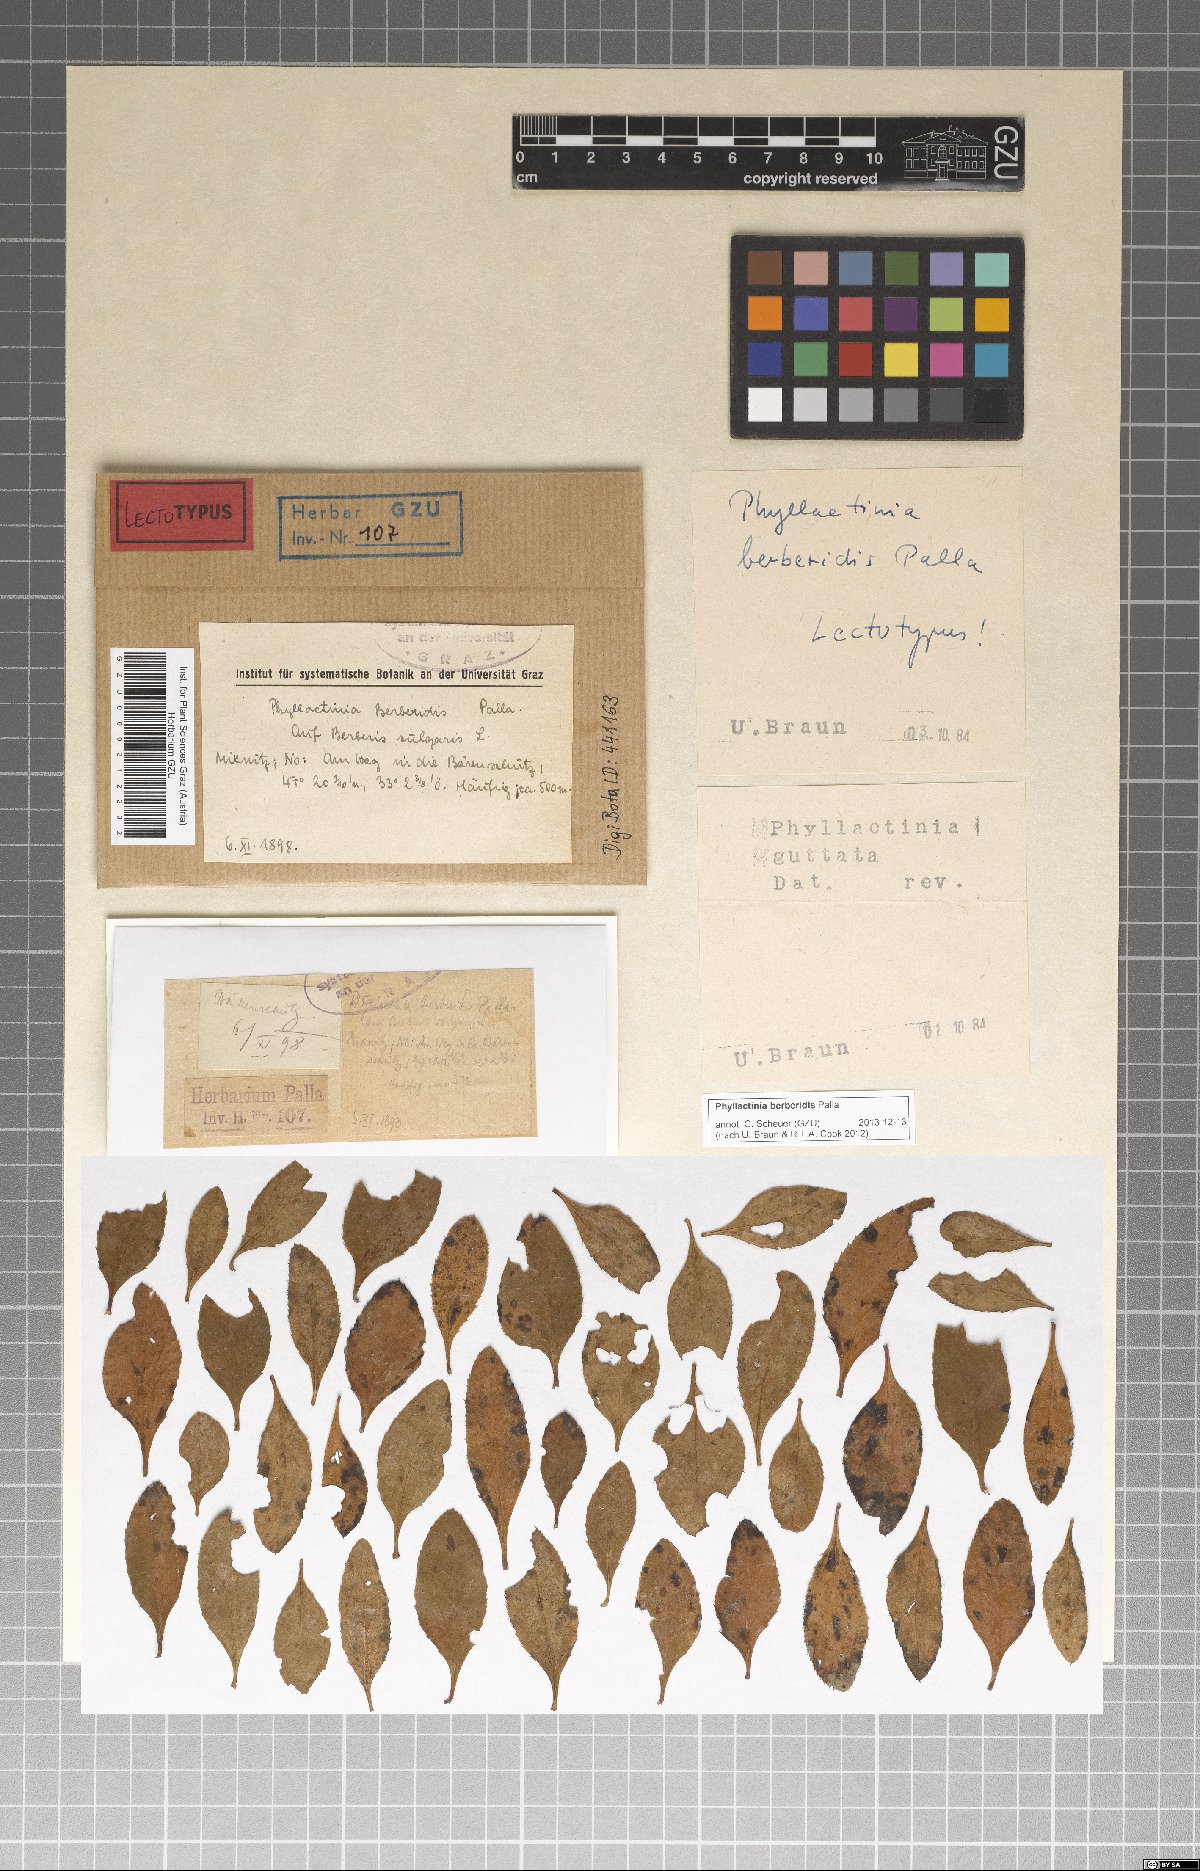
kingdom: Fungi
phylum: Ascomycota
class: Leotiomycetes
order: Helotiales
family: Erysiphaceae
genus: Phyllactinia
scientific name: Phyllactinia guttata
